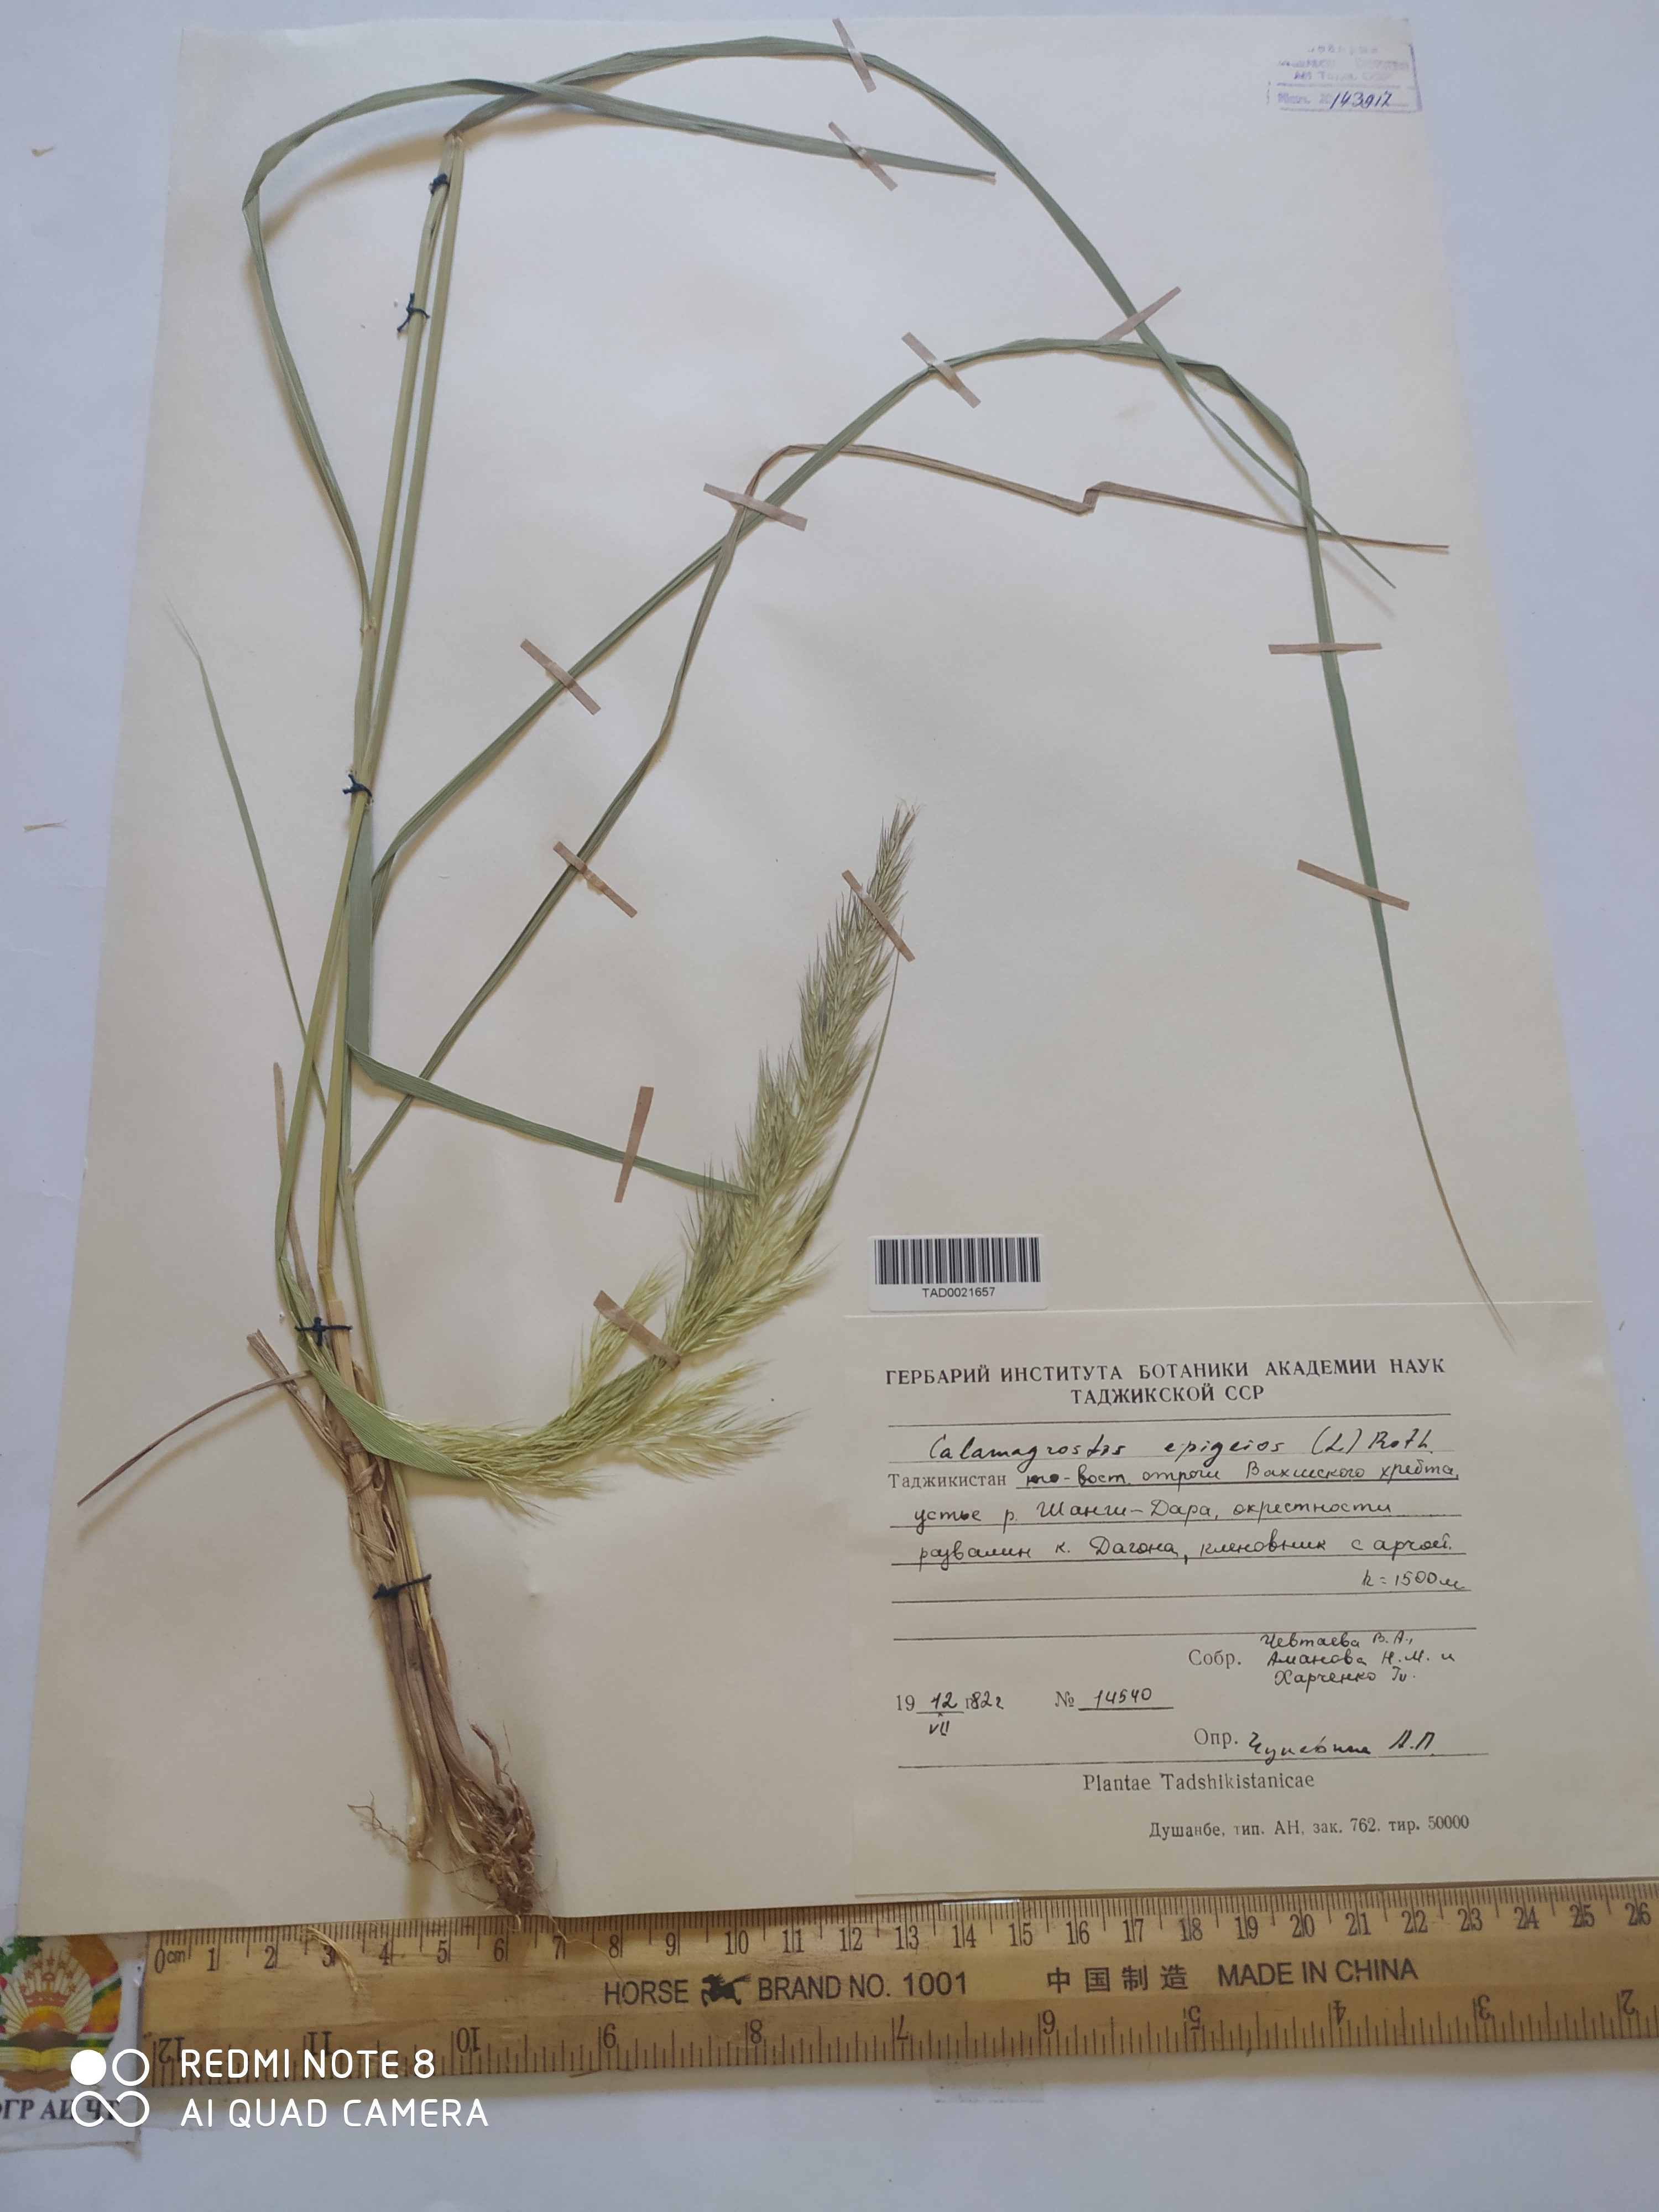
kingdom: Plantae
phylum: Tracheophyta
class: Liliopsida
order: Poales
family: Poaceae
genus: Calamagrostis
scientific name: Calamagrostis epigejos
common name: Wood small-reed
